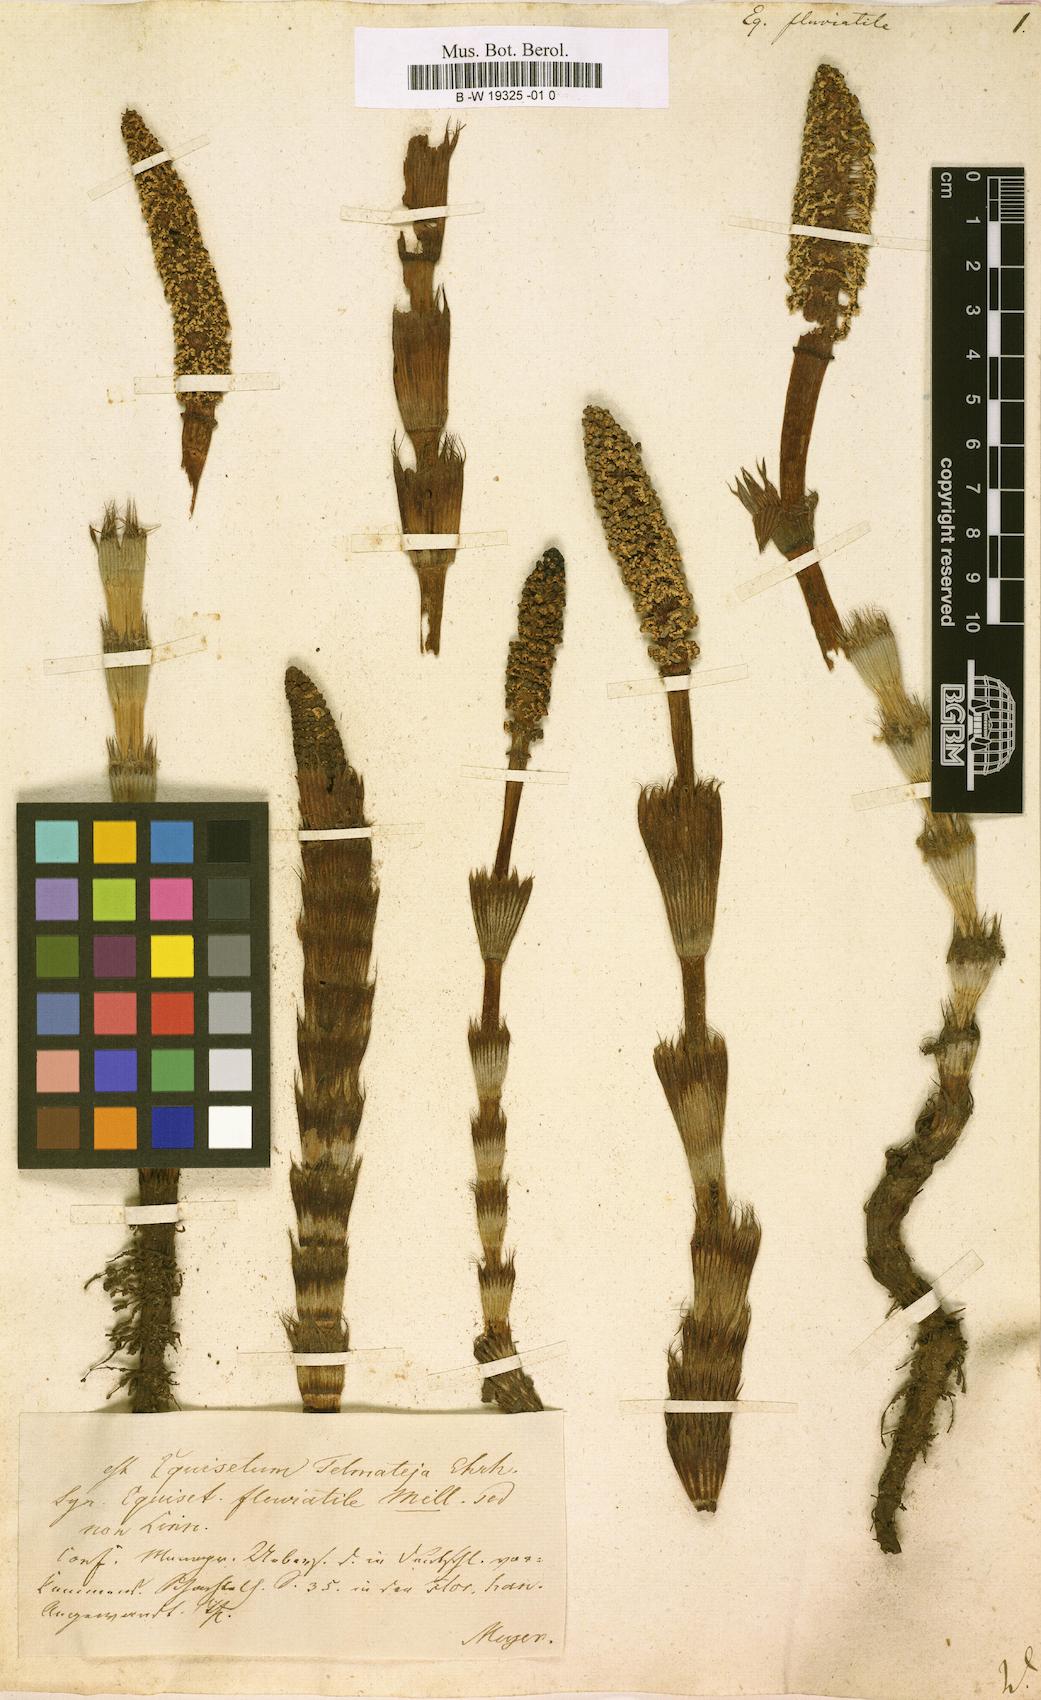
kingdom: Plantae
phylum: Tracheophyta
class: Polypodiopsida
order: Equisetales
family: Equisetaceae
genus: Equisetum
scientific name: Equisetum fluviatile
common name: Water horsetail
